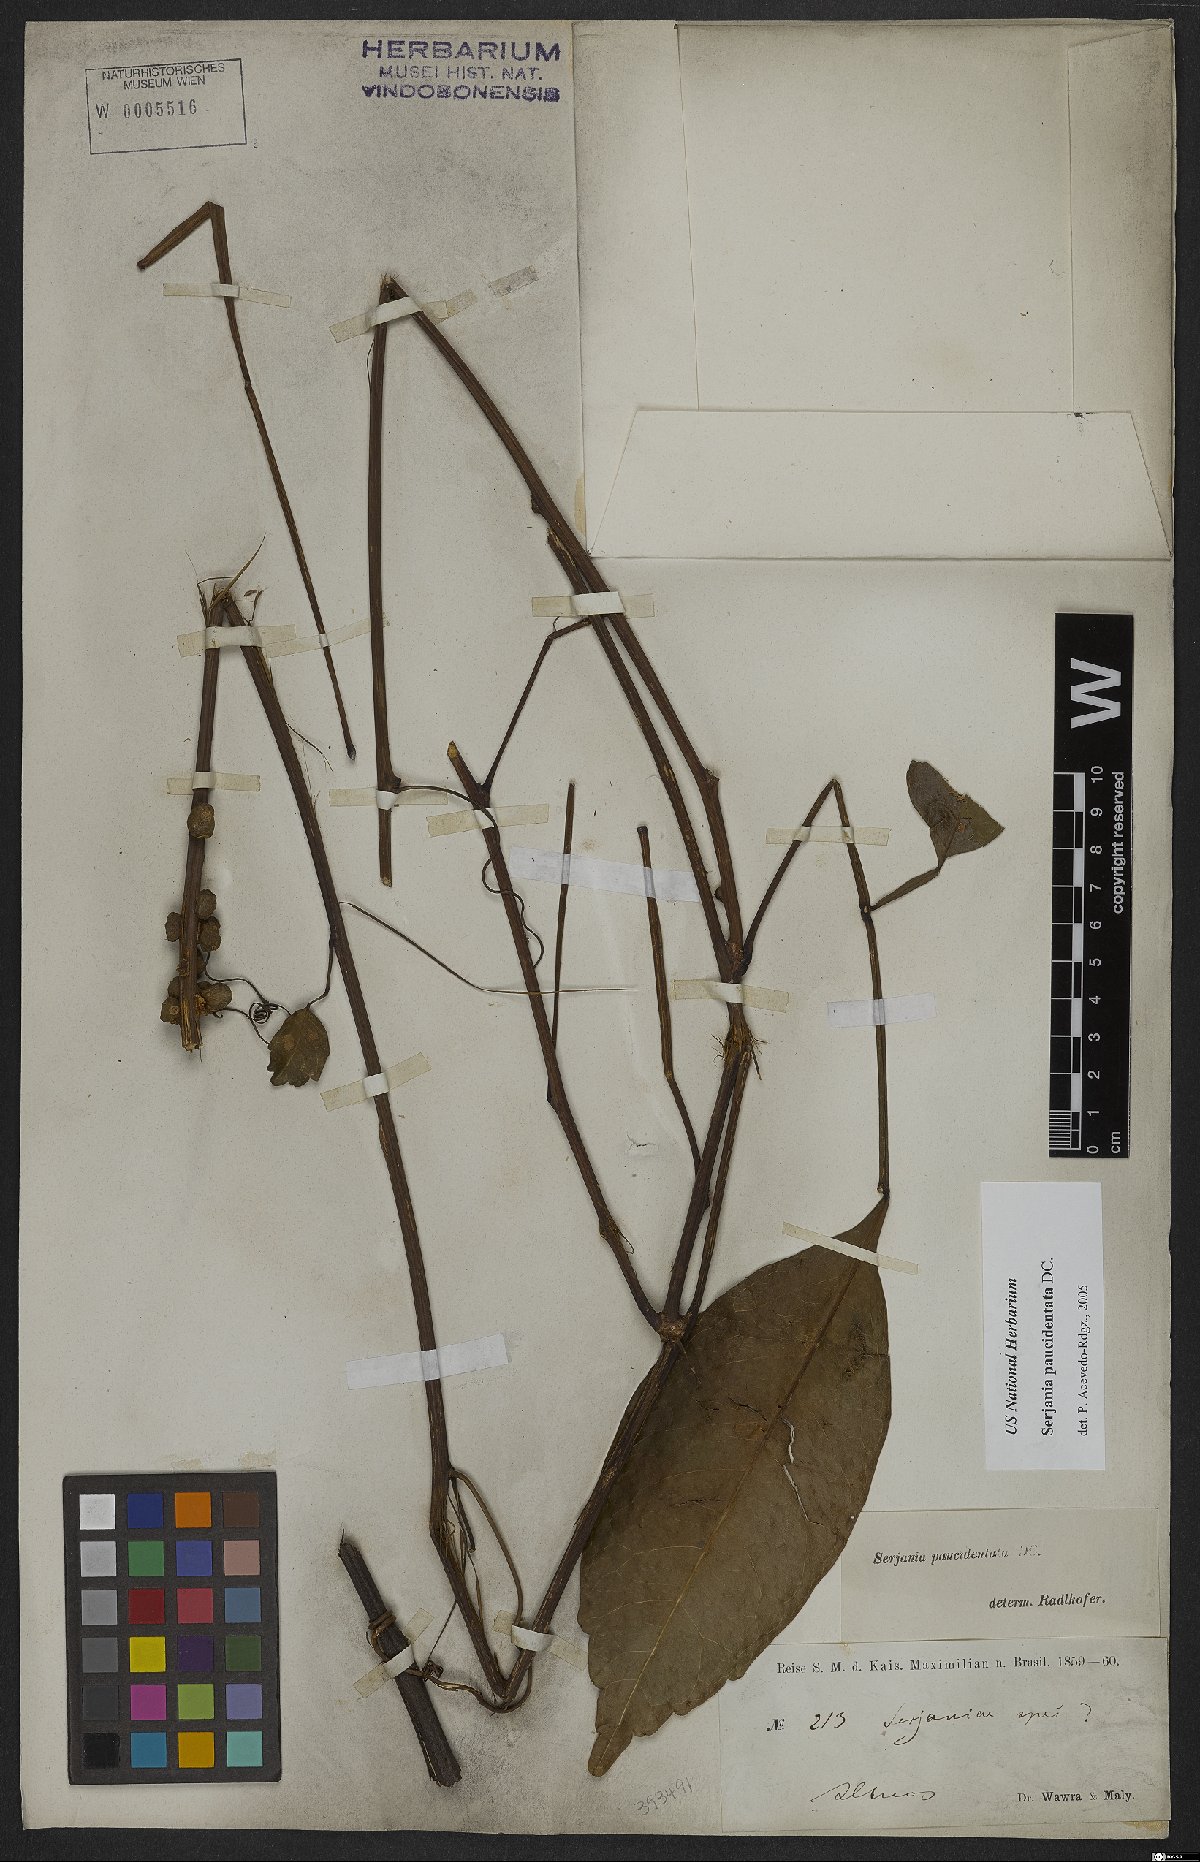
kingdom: Plantae
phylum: Tracheophyta
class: Magnoliopsida
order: Sapindales
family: Sapindaceae
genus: Serjania
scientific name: Serjania paucidentata
